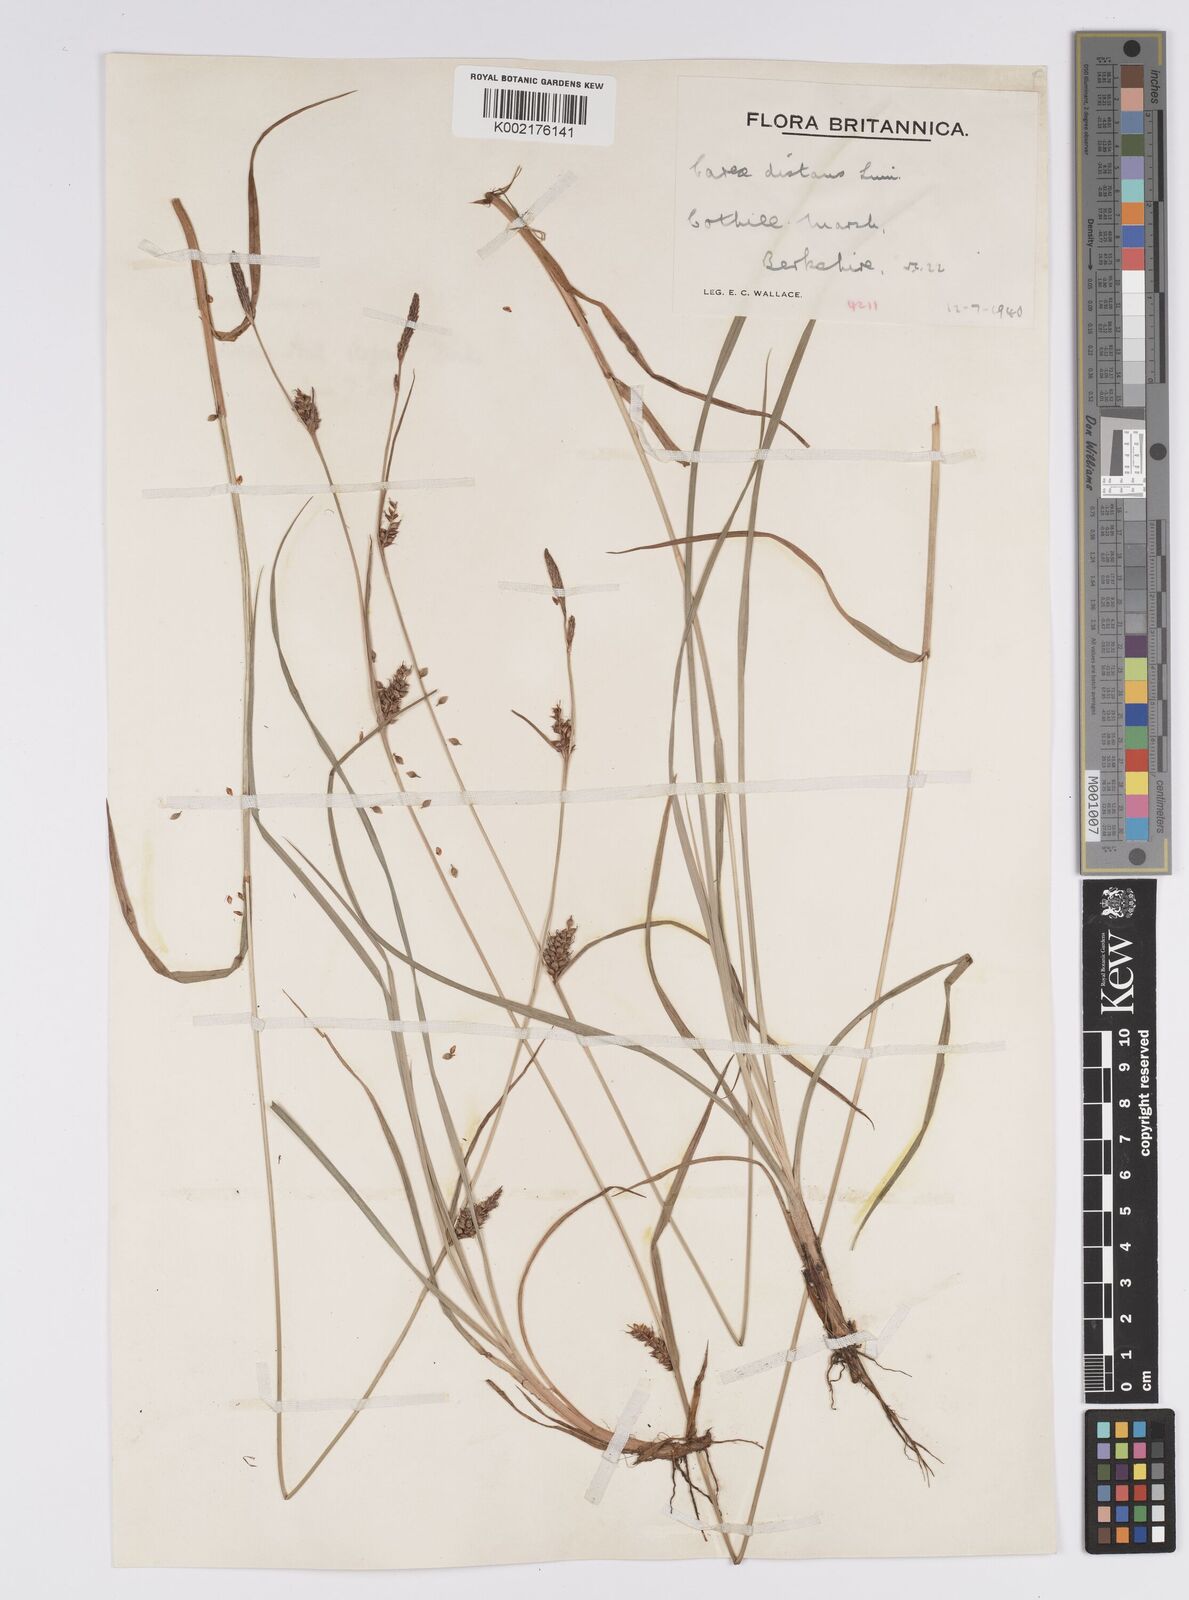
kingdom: Plantae
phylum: Tracheophyta
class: Liliopsida
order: Poales
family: Cyperaceae
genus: Carex
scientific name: Carex distans
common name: Distant sedge
